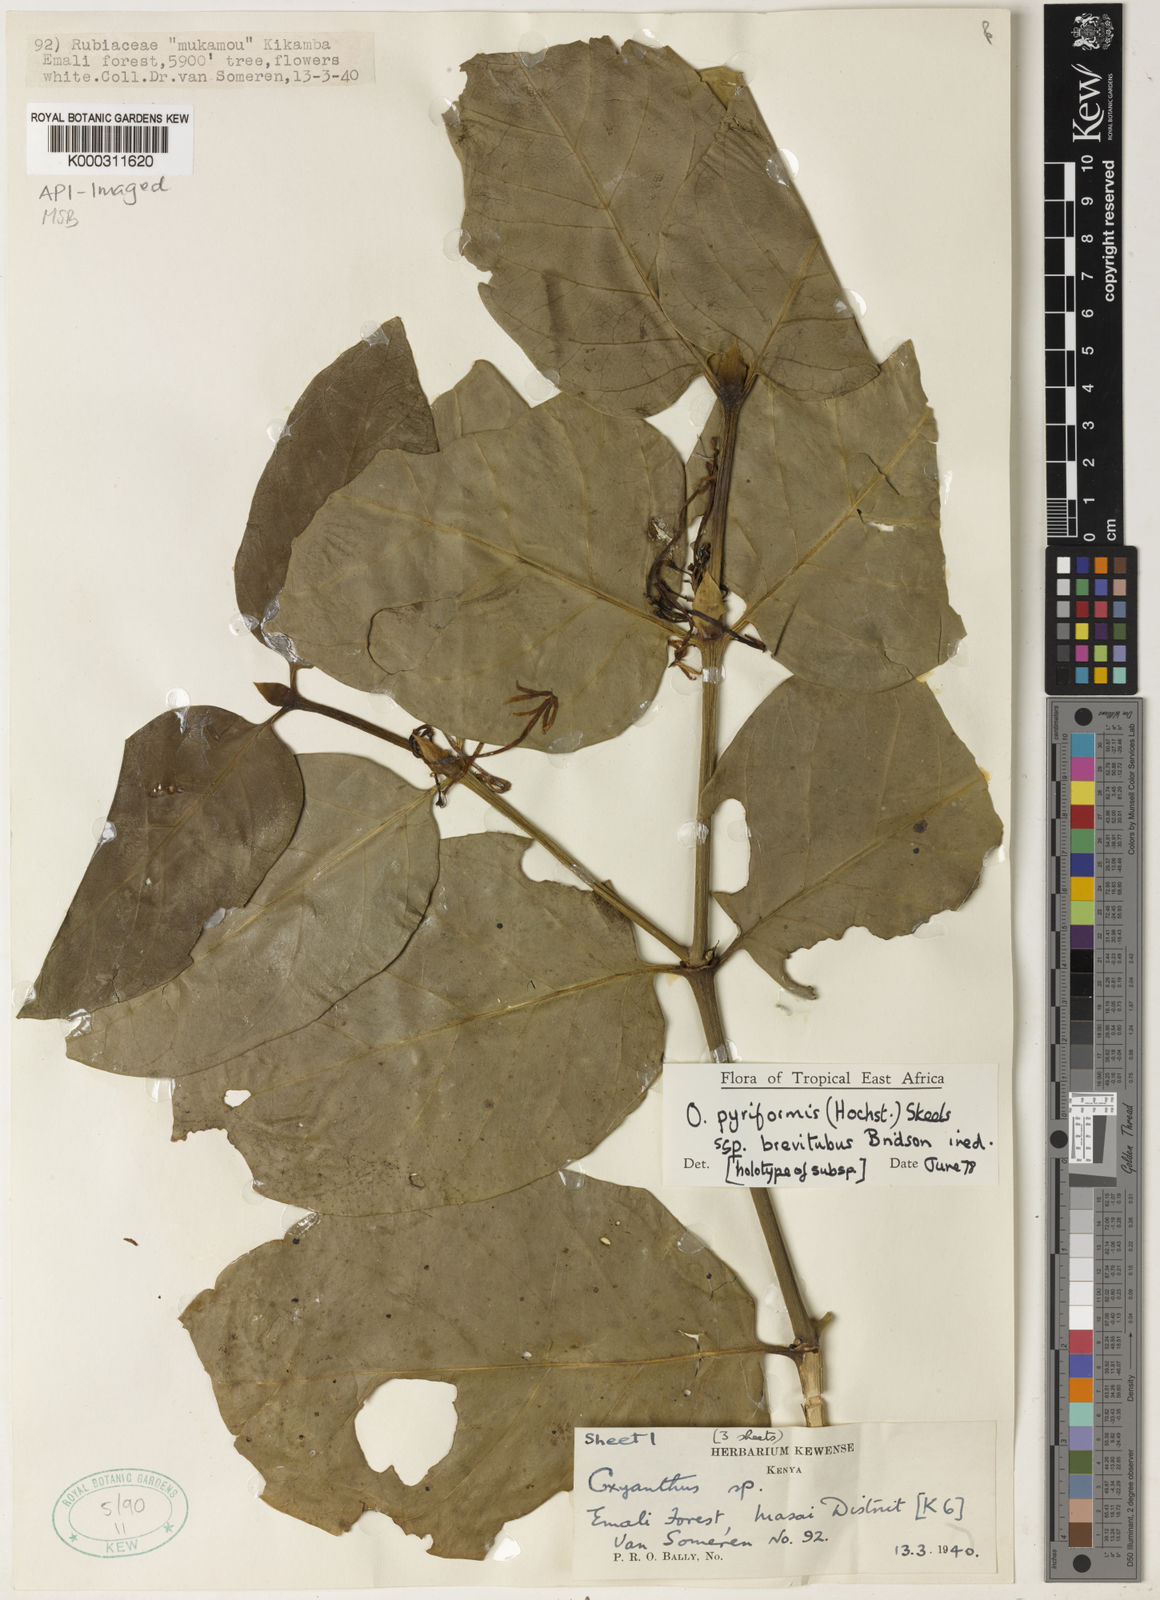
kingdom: Plantae
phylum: Tracheophyta
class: Magnoliopsida
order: Gentianales
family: Rubiaceae
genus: Oxyanthus
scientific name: Oxyanthus pyriformis
